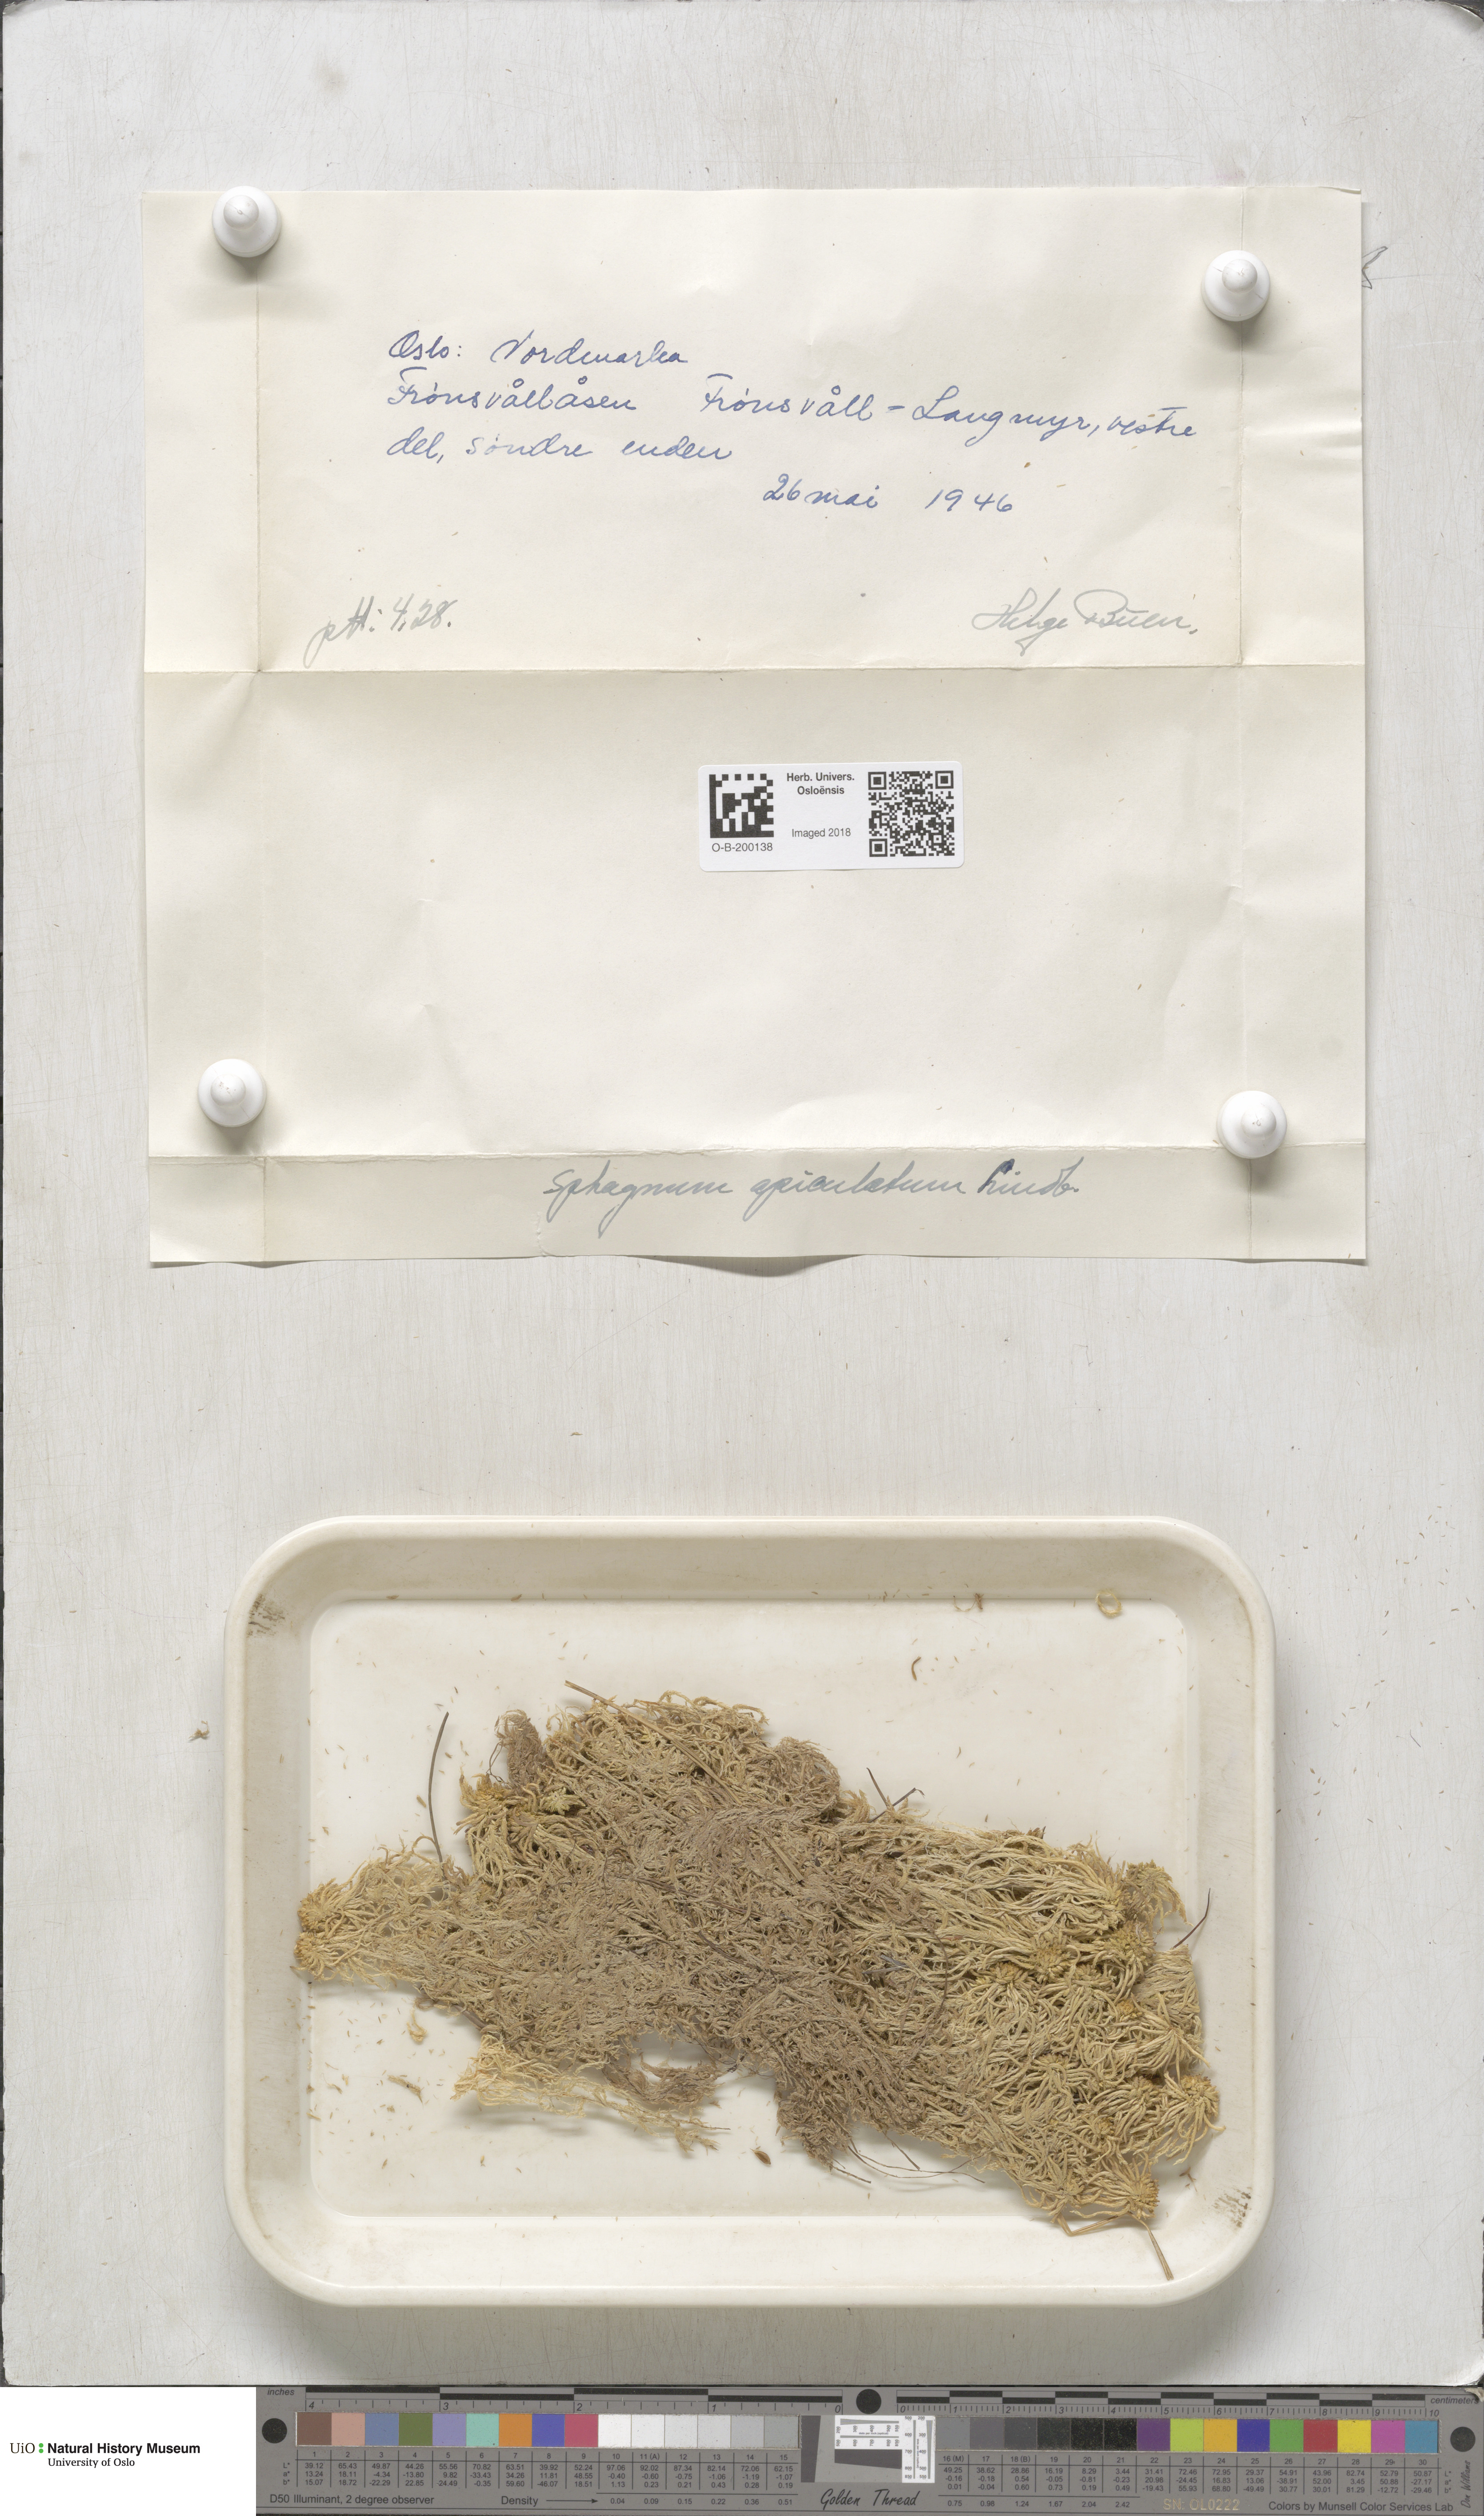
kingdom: Plantae
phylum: Bryophyta
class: Sphagnopsida
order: Sphagnales
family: Sphagnaceae
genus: Sphagnum
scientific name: Sphagnum fallax
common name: Flat-top peat moss
